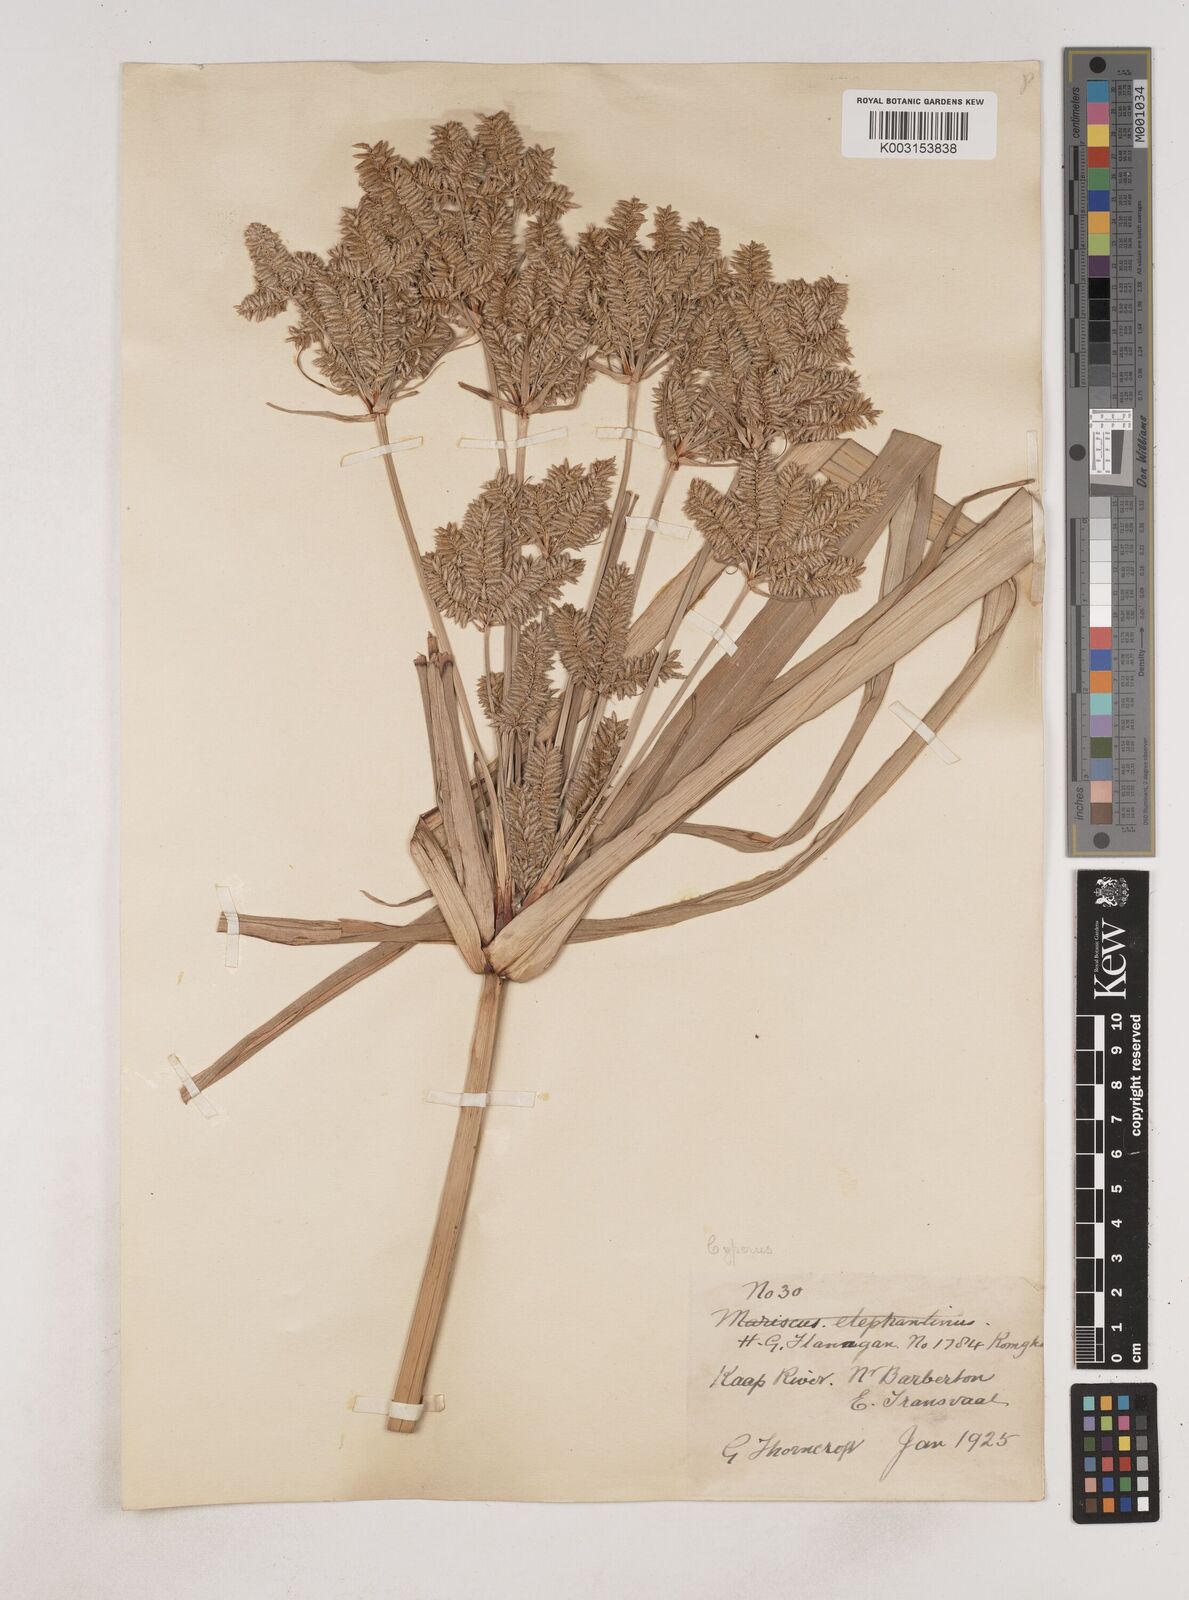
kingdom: Plantae
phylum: Tracheophyta
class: Liliopsida
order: Poales
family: Cyperaceae
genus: Cyperus
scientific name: Cyperus
